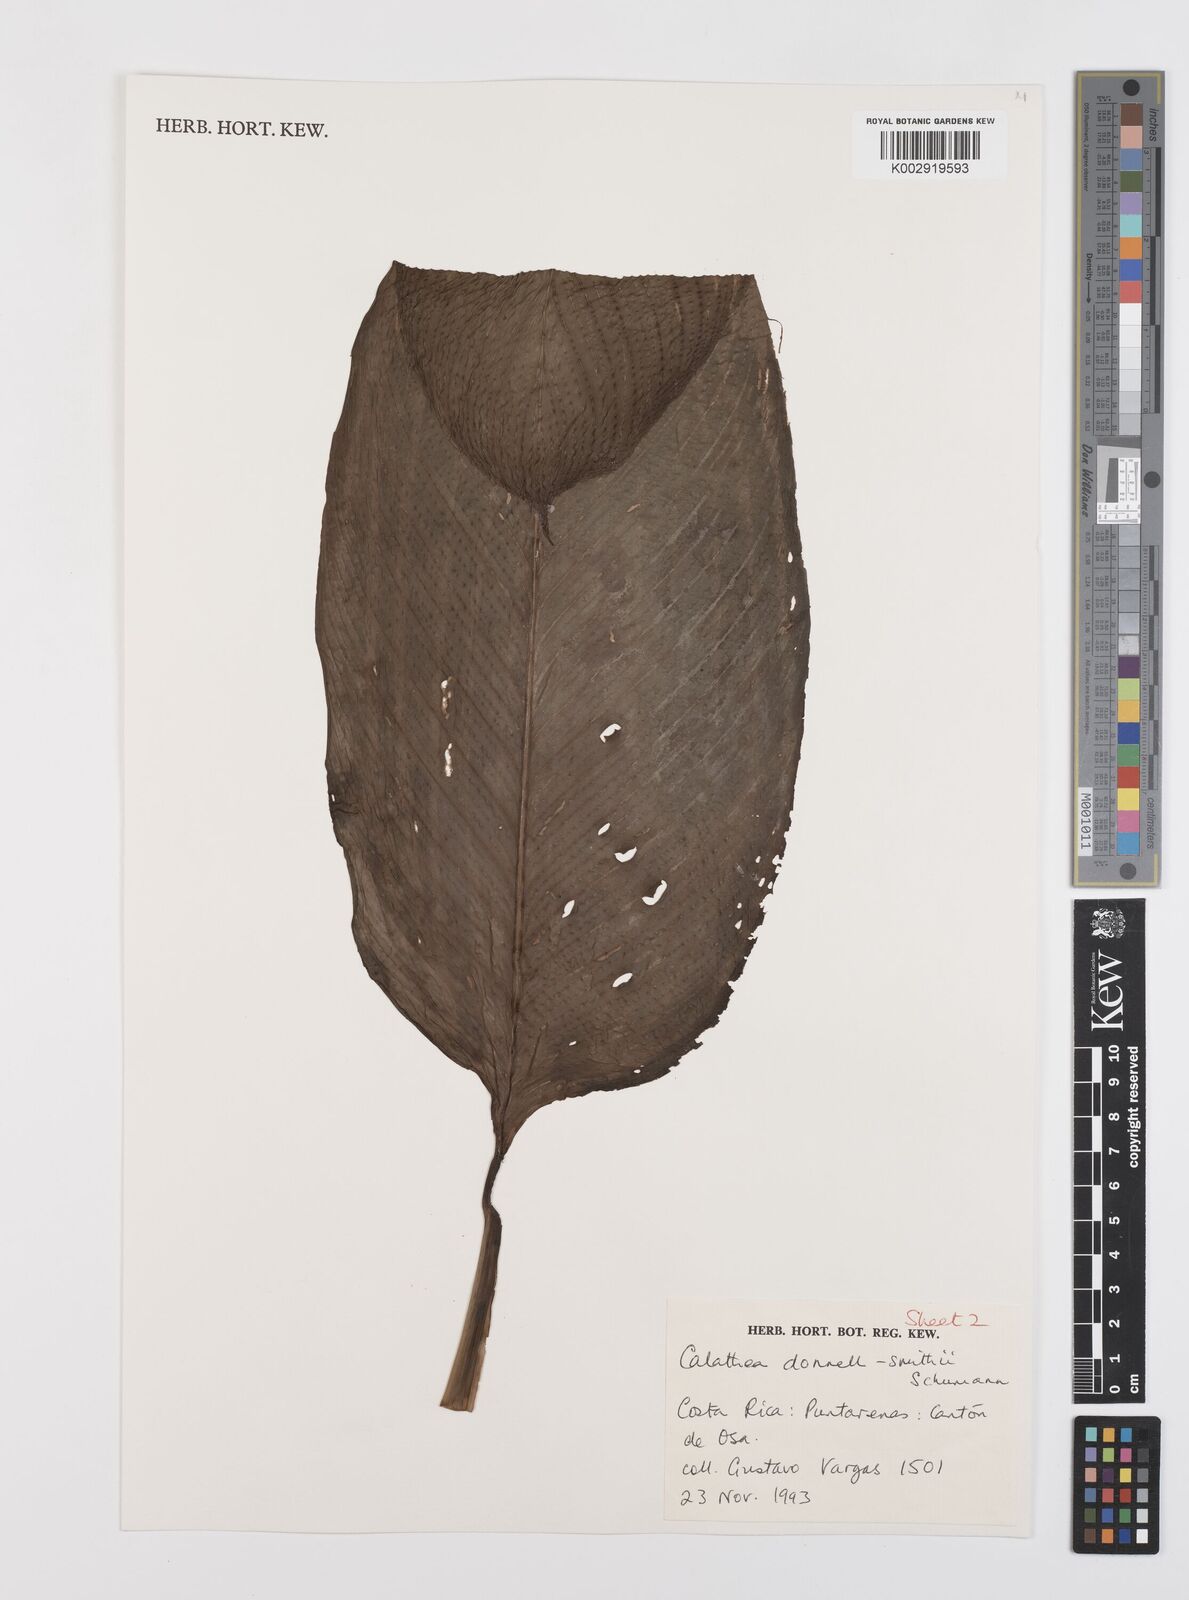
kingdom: Plantae
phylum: Tracheophyta
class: Liliopsida
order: Zingiberales
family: Marantaceae
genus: Goeppertia
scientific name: Goeppertia donnell-smithii
